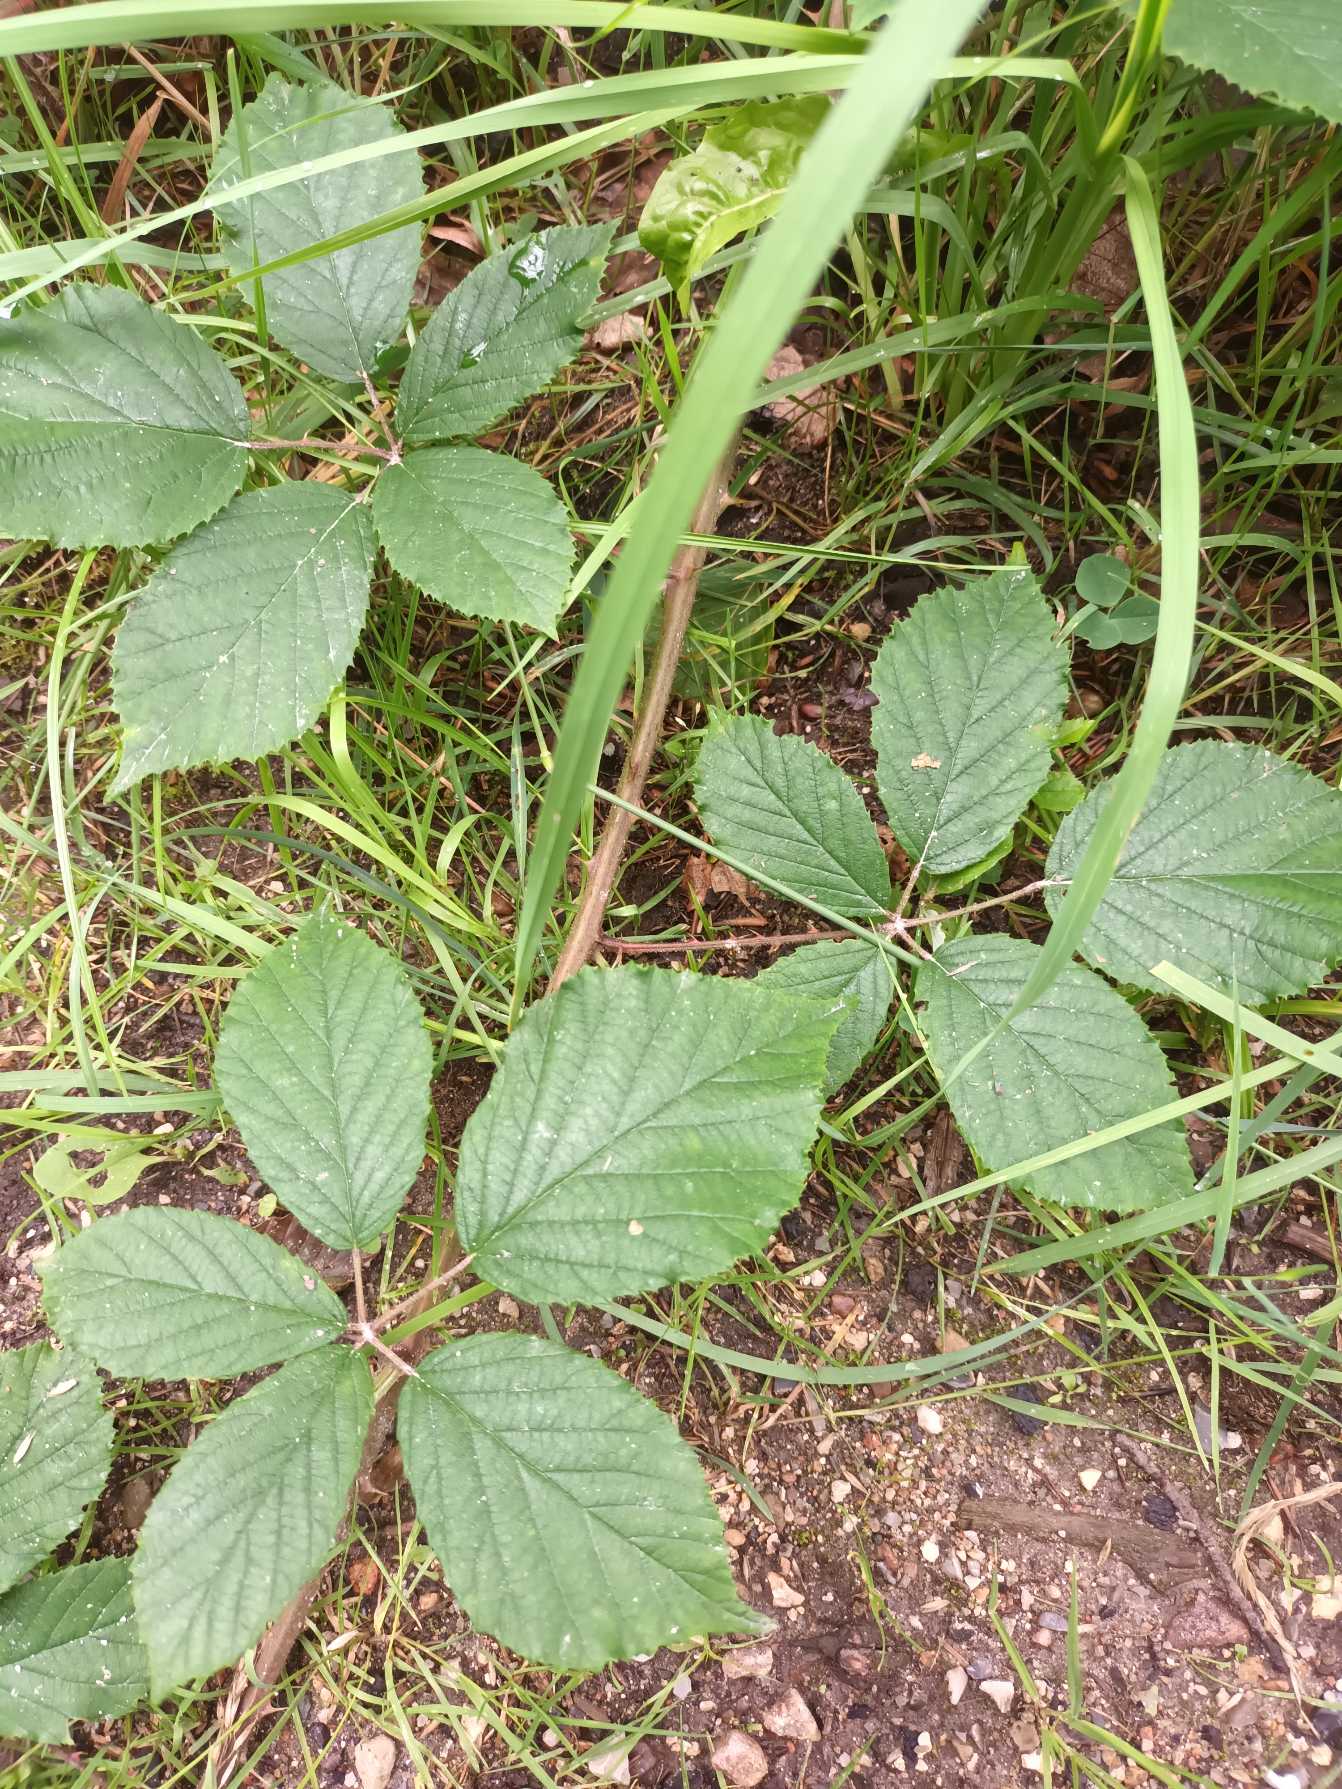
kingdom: Plantae
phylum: Tracheophyta
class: Magnoliopsida
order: Rosales
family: Rosaceae
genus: Rubus
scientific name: Rubus radula
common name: Rasperu brombær
